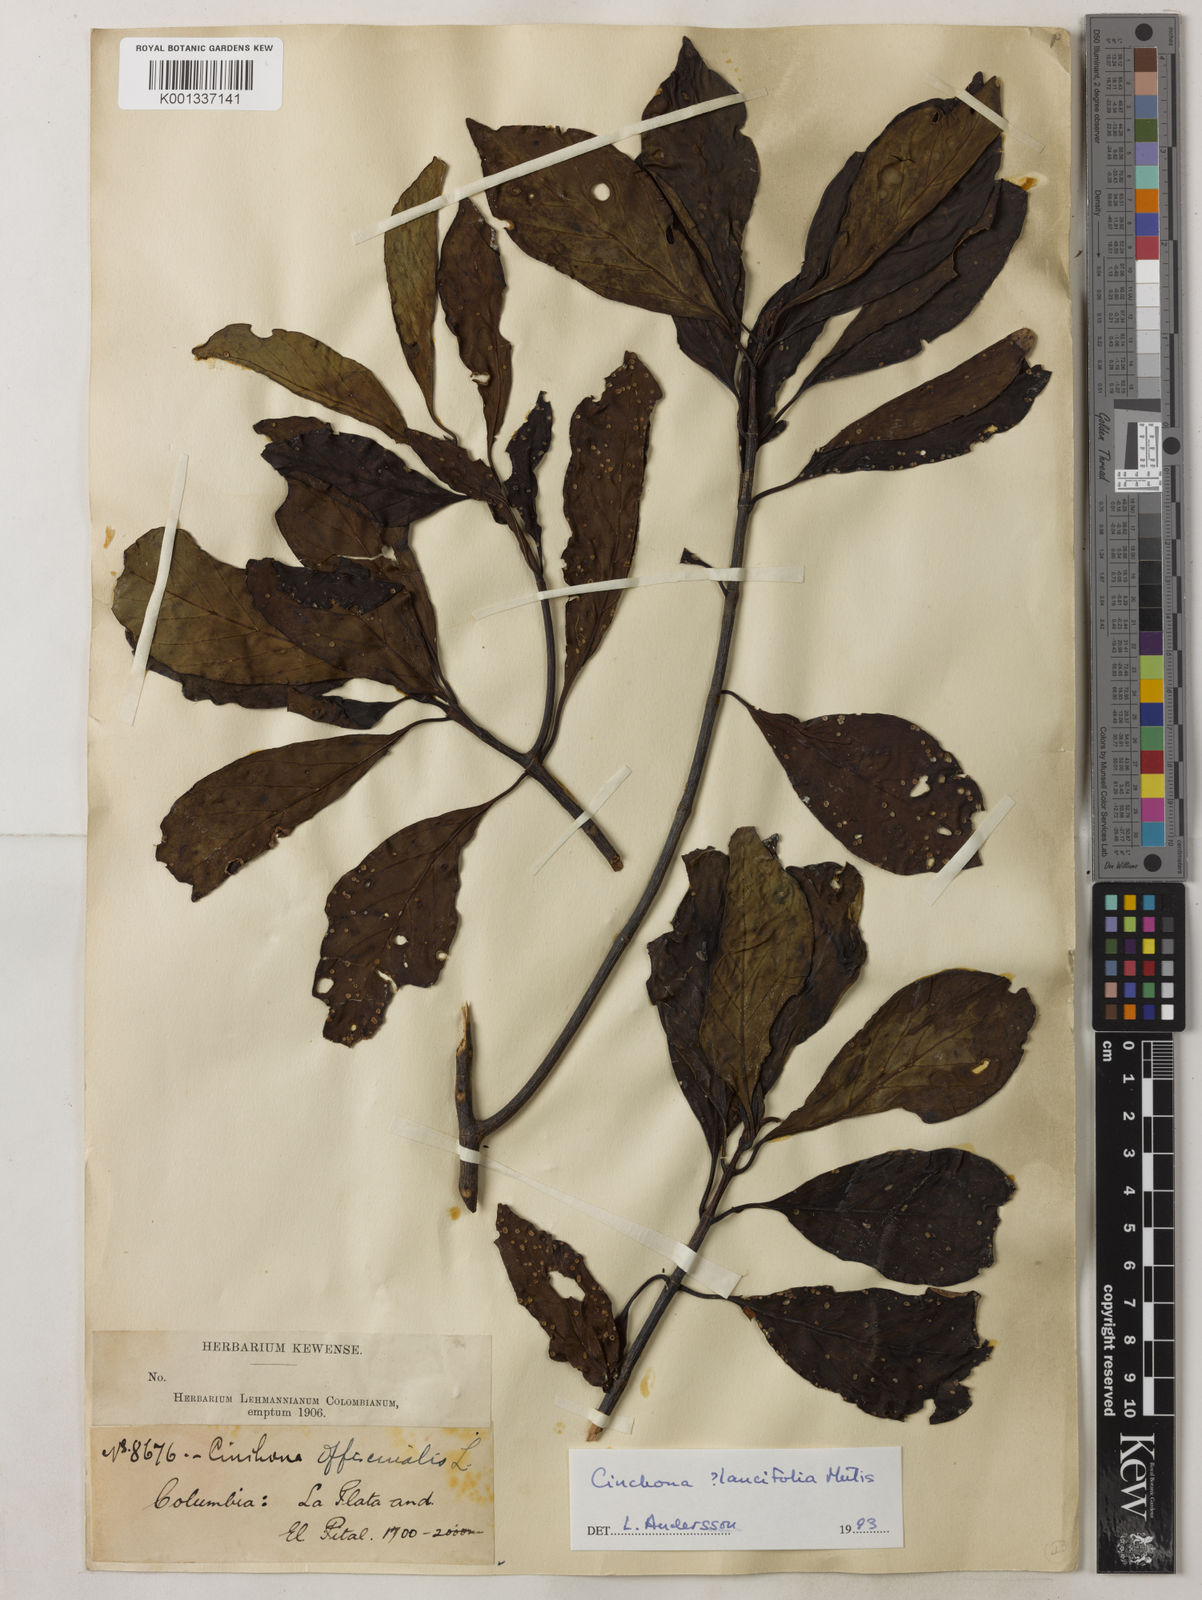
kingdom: Plantae
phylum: Tracheophyta
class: Magnoliopsida
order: Gentianales
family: Rubiaceae
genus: Cinchona
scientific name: Cinchona lancifolia
